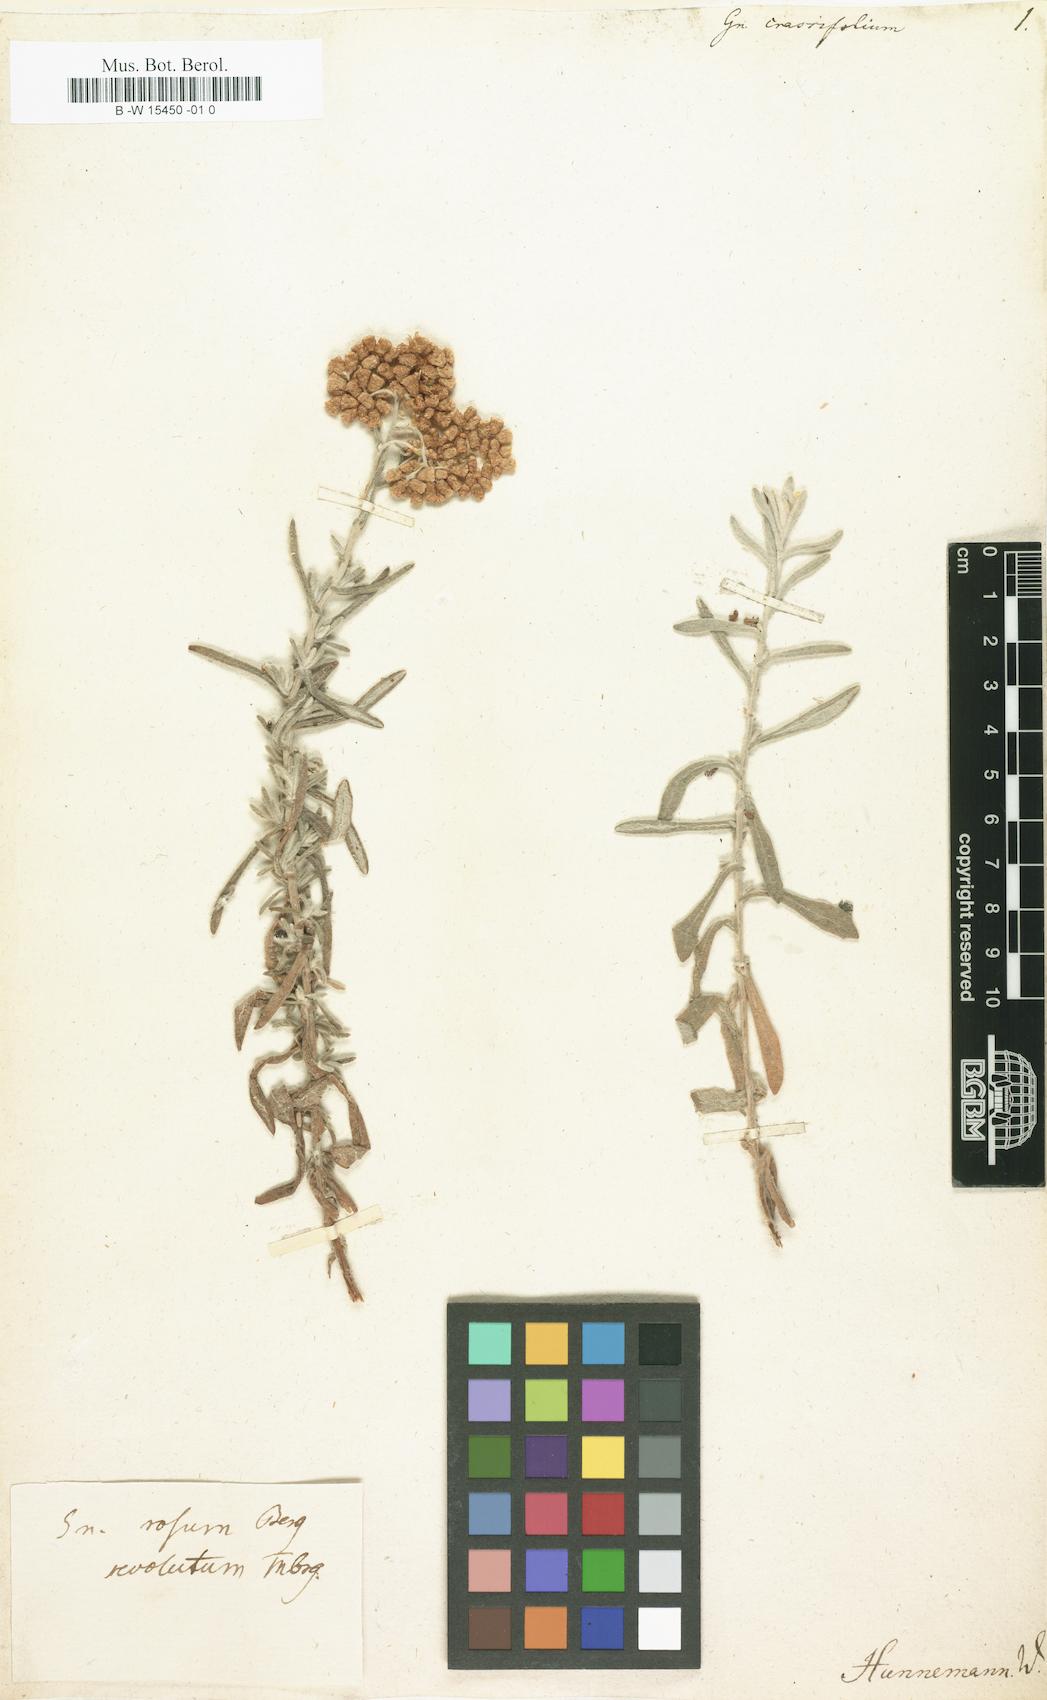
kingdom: Plantae
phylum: Tracheophyta
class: Magnoliopsida
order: Asterales
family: Asteraceae
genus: Helichrysum
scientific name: Helichrysum
